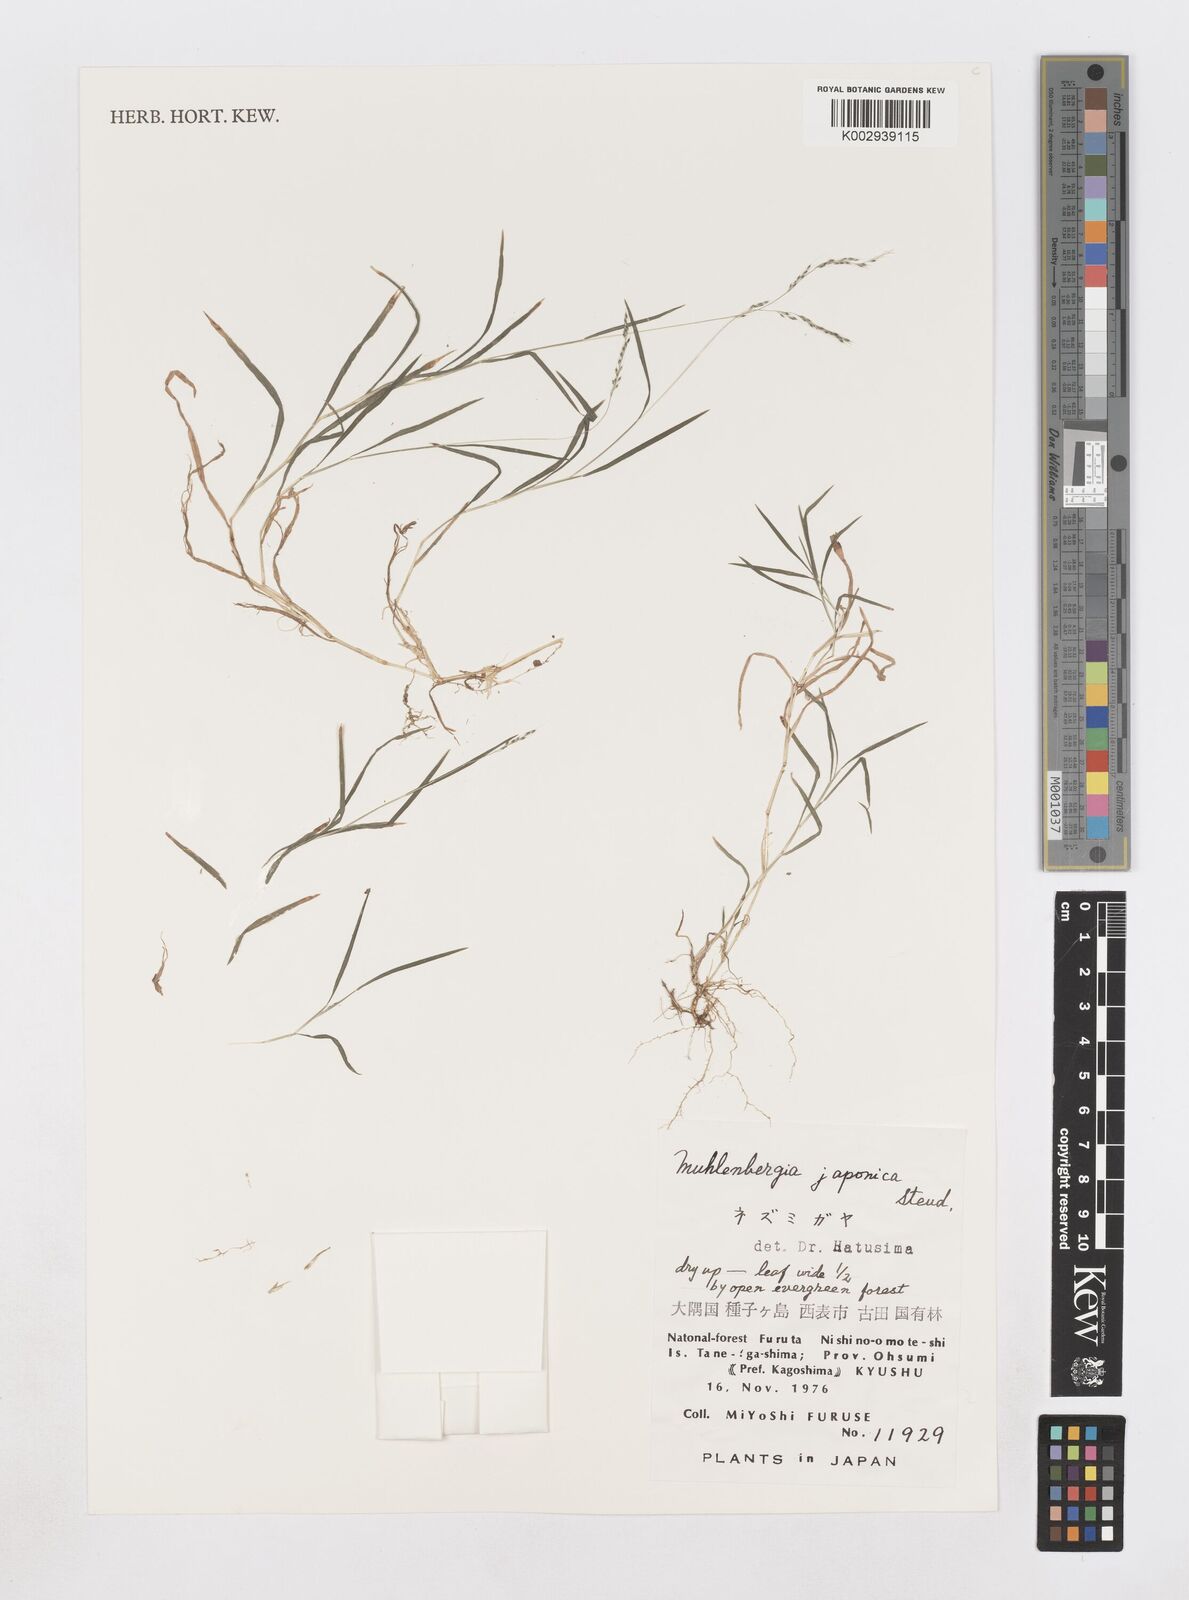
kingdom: Plantae
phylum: Tracheophyta
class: Liliopsida
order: Poales
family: Poaceae
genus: Muhlenbergia
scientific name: Muhlenbergia japonica
